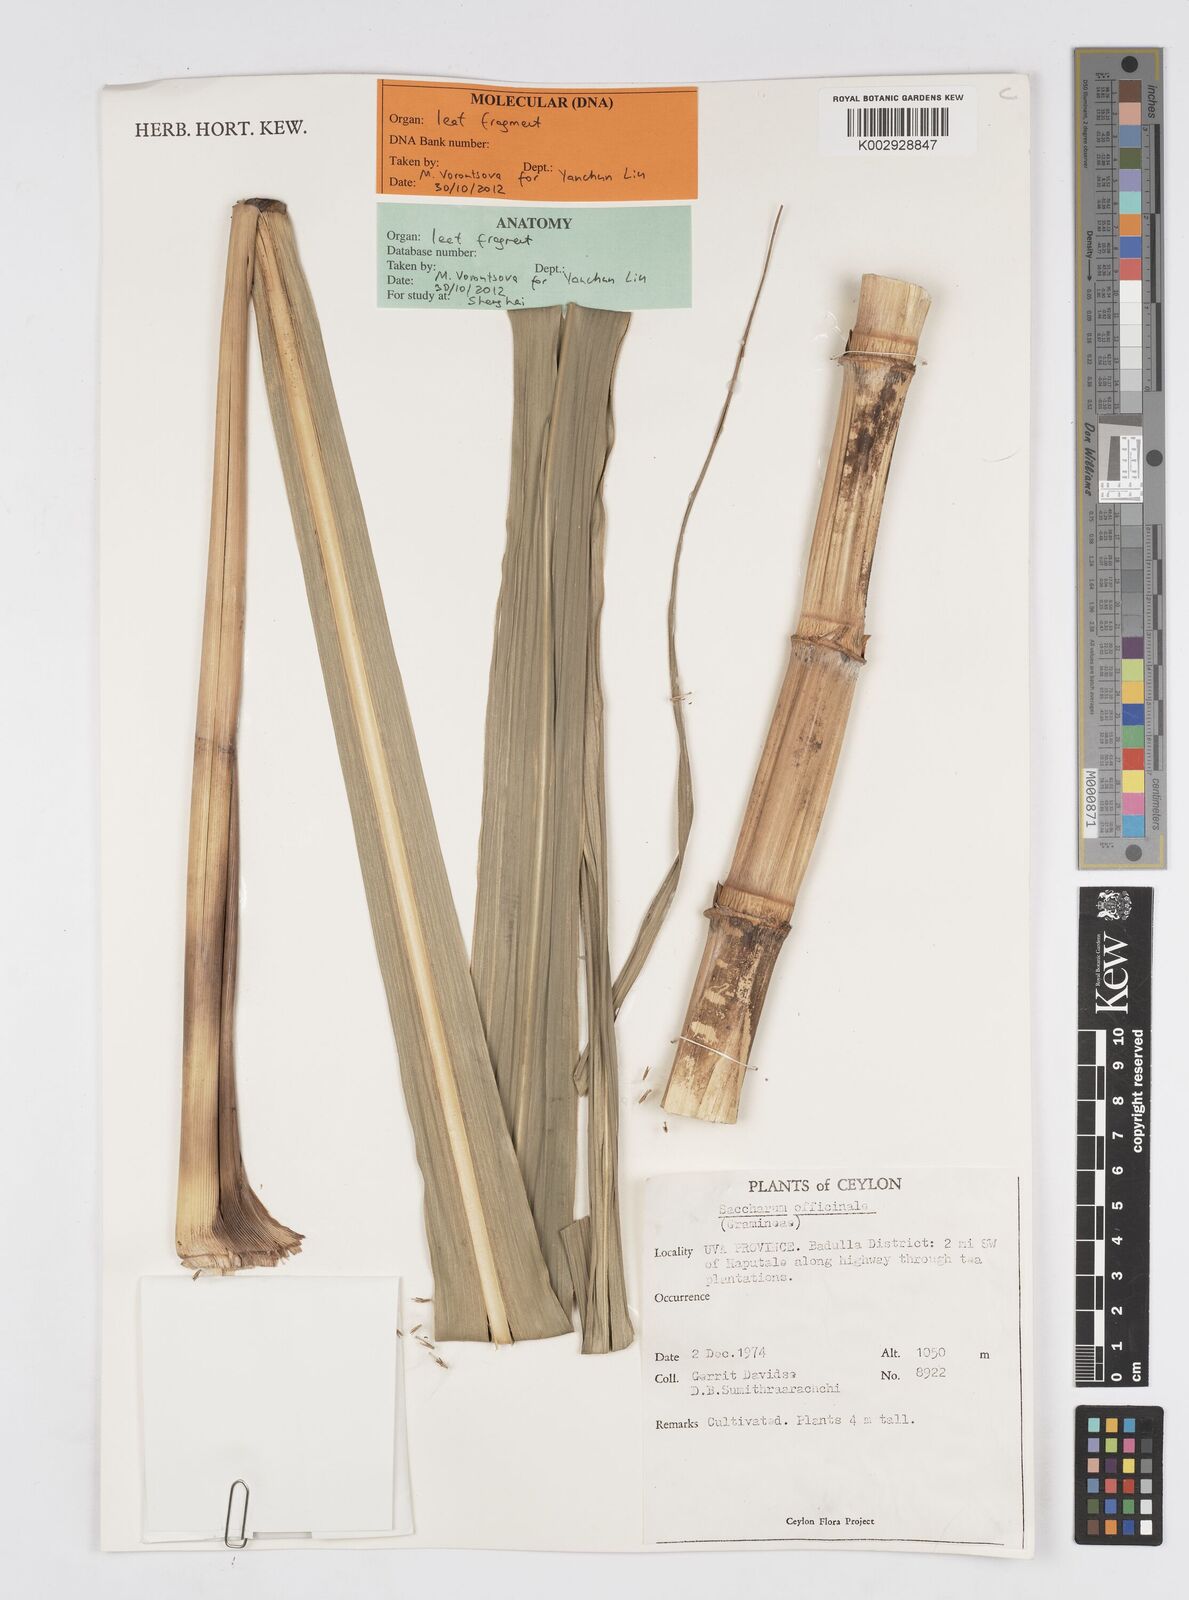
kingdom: Plantae
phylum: Tracheophyta
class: Liliopsida
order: Poales
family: Poaceae
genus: Saccharum
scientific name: Saccharum officinarum
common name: Sugarcane
